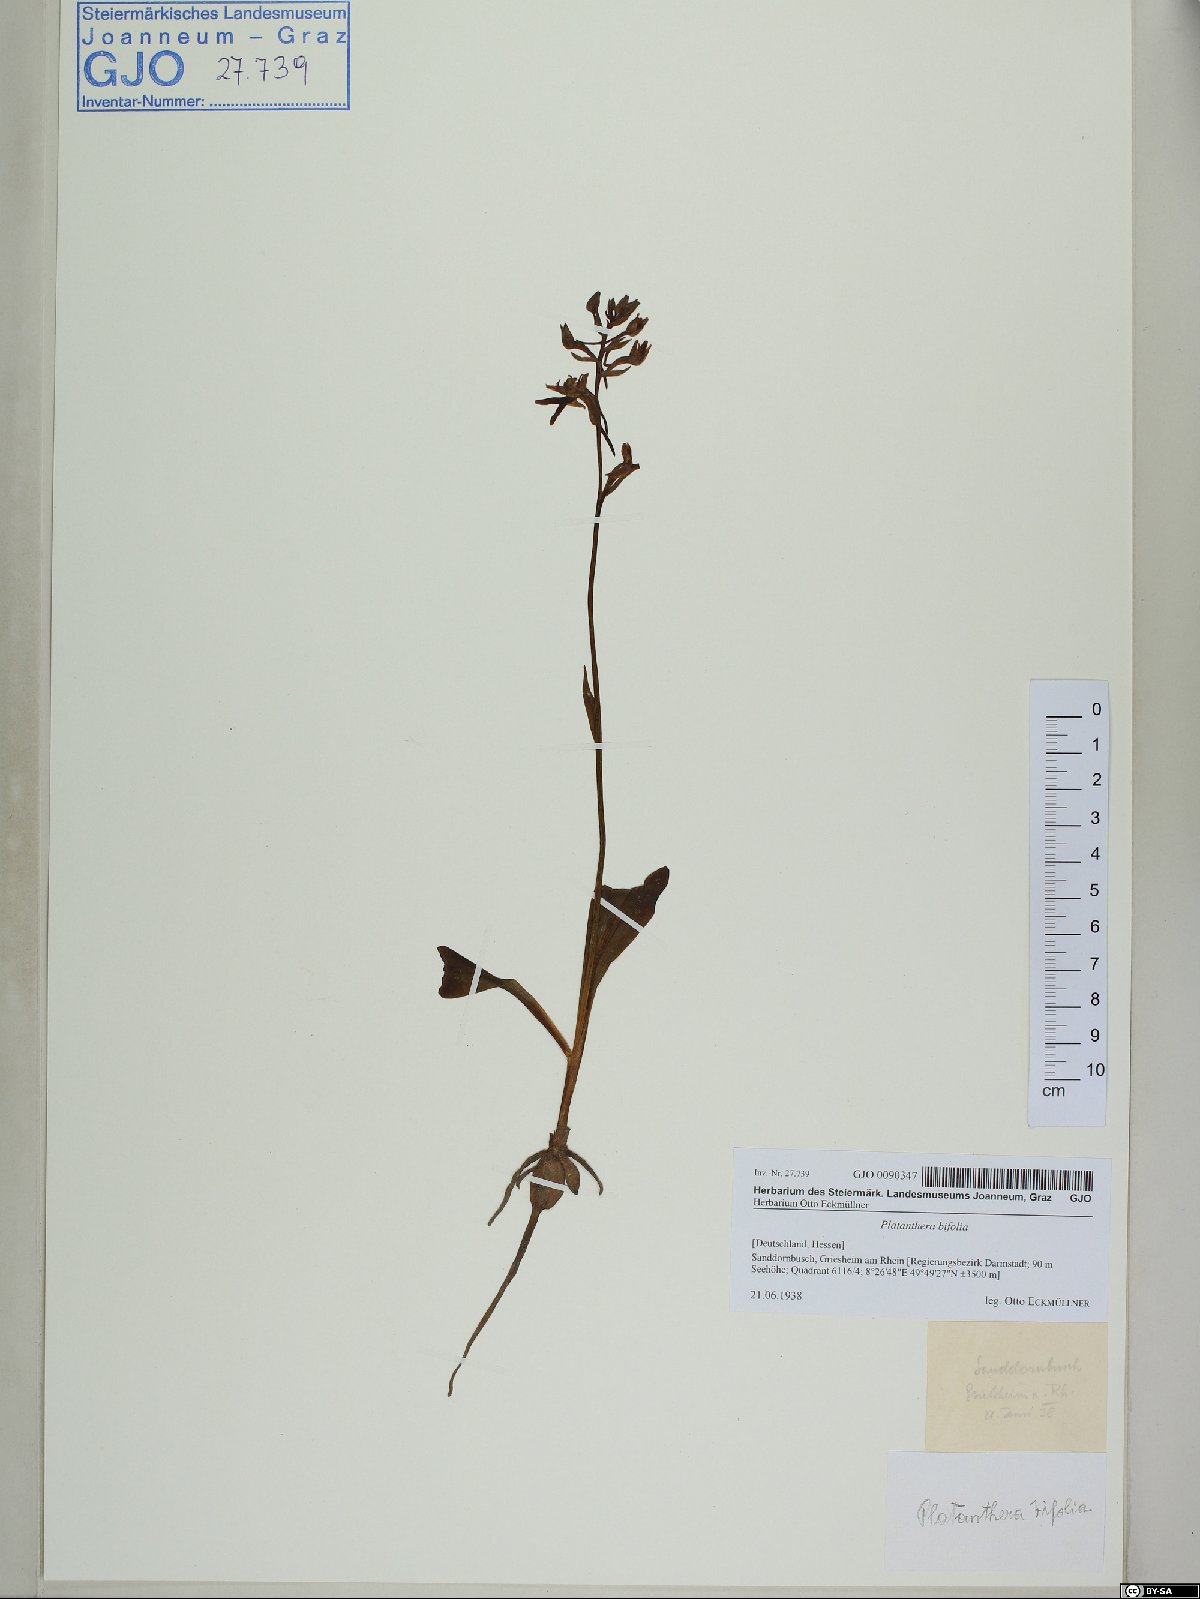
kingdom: Plantae
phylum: Tracheophyta
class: Liliopsida
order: Asparagales
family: Orchidaceae
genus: Platanthera
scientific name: Platanthera bifolia
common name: Lesser butterfly-orchid
